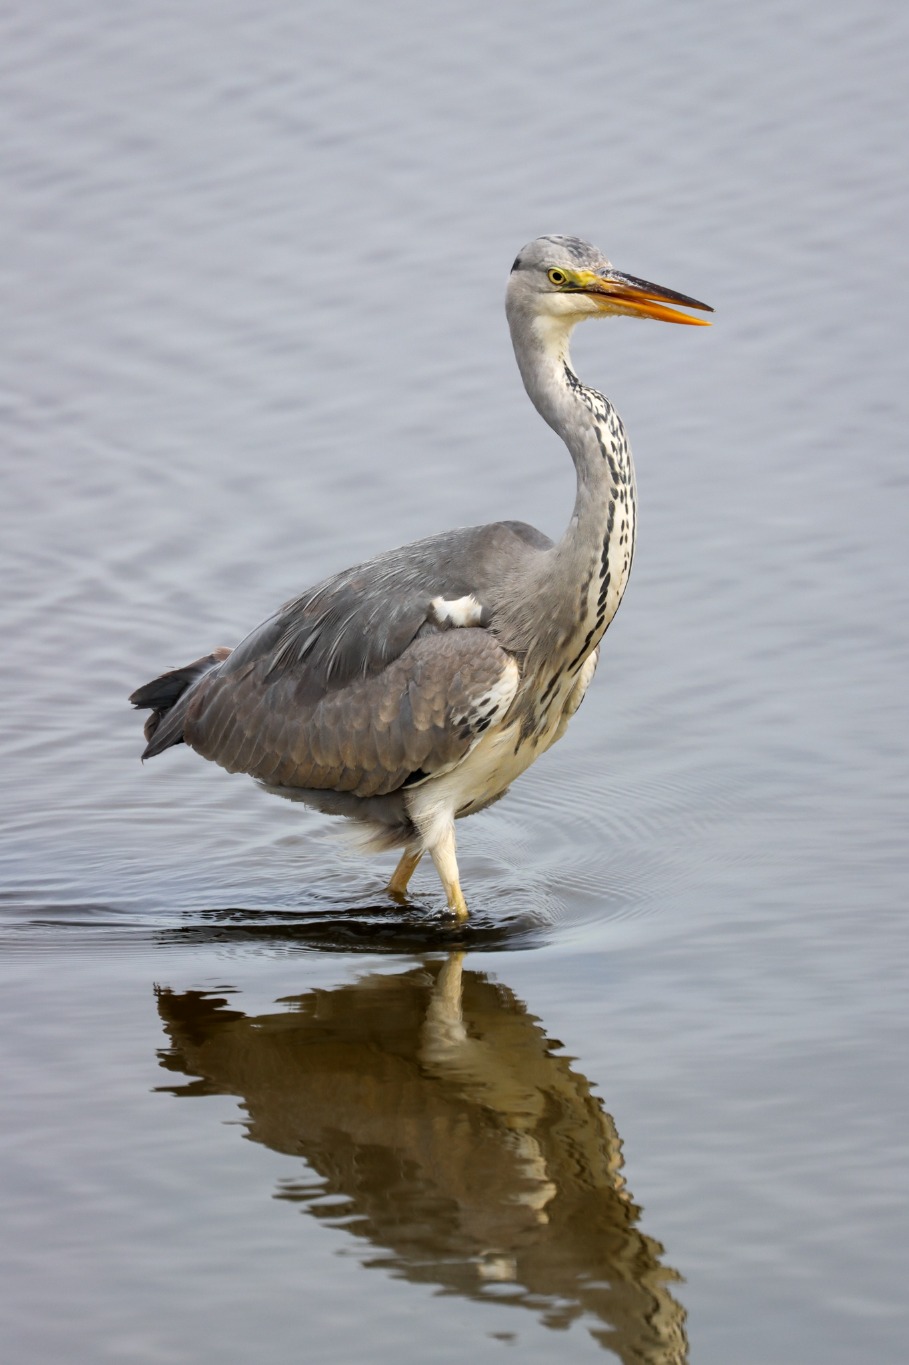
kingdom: Animalia
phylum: Chordata
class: Aves
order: Pelecaniformes
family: Ardeidae
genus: Ardea
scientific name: Ardea cinerea
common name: Fiskehejre
